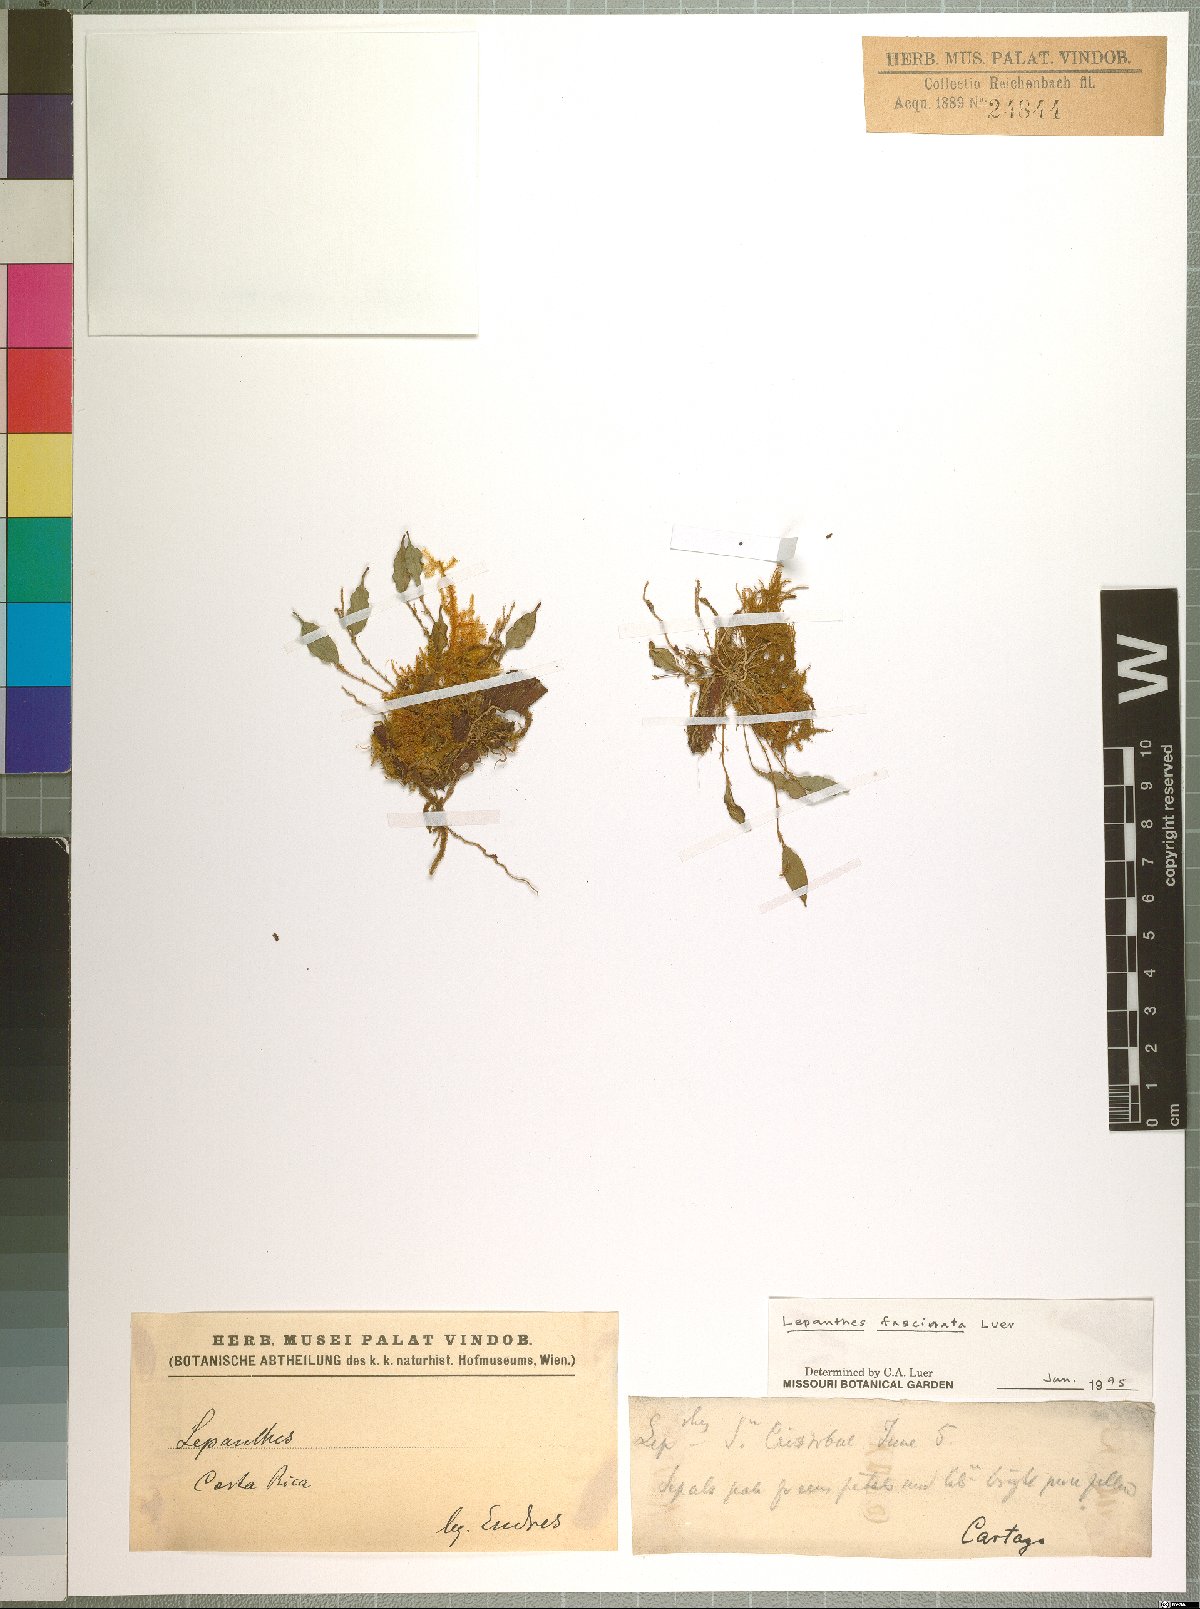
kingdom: Plantae
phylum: Tracheophyta
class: Liliopsida
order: Asparagales
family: Orchidaceae
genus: Lepanthes
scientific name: Lepanthes fascinata
